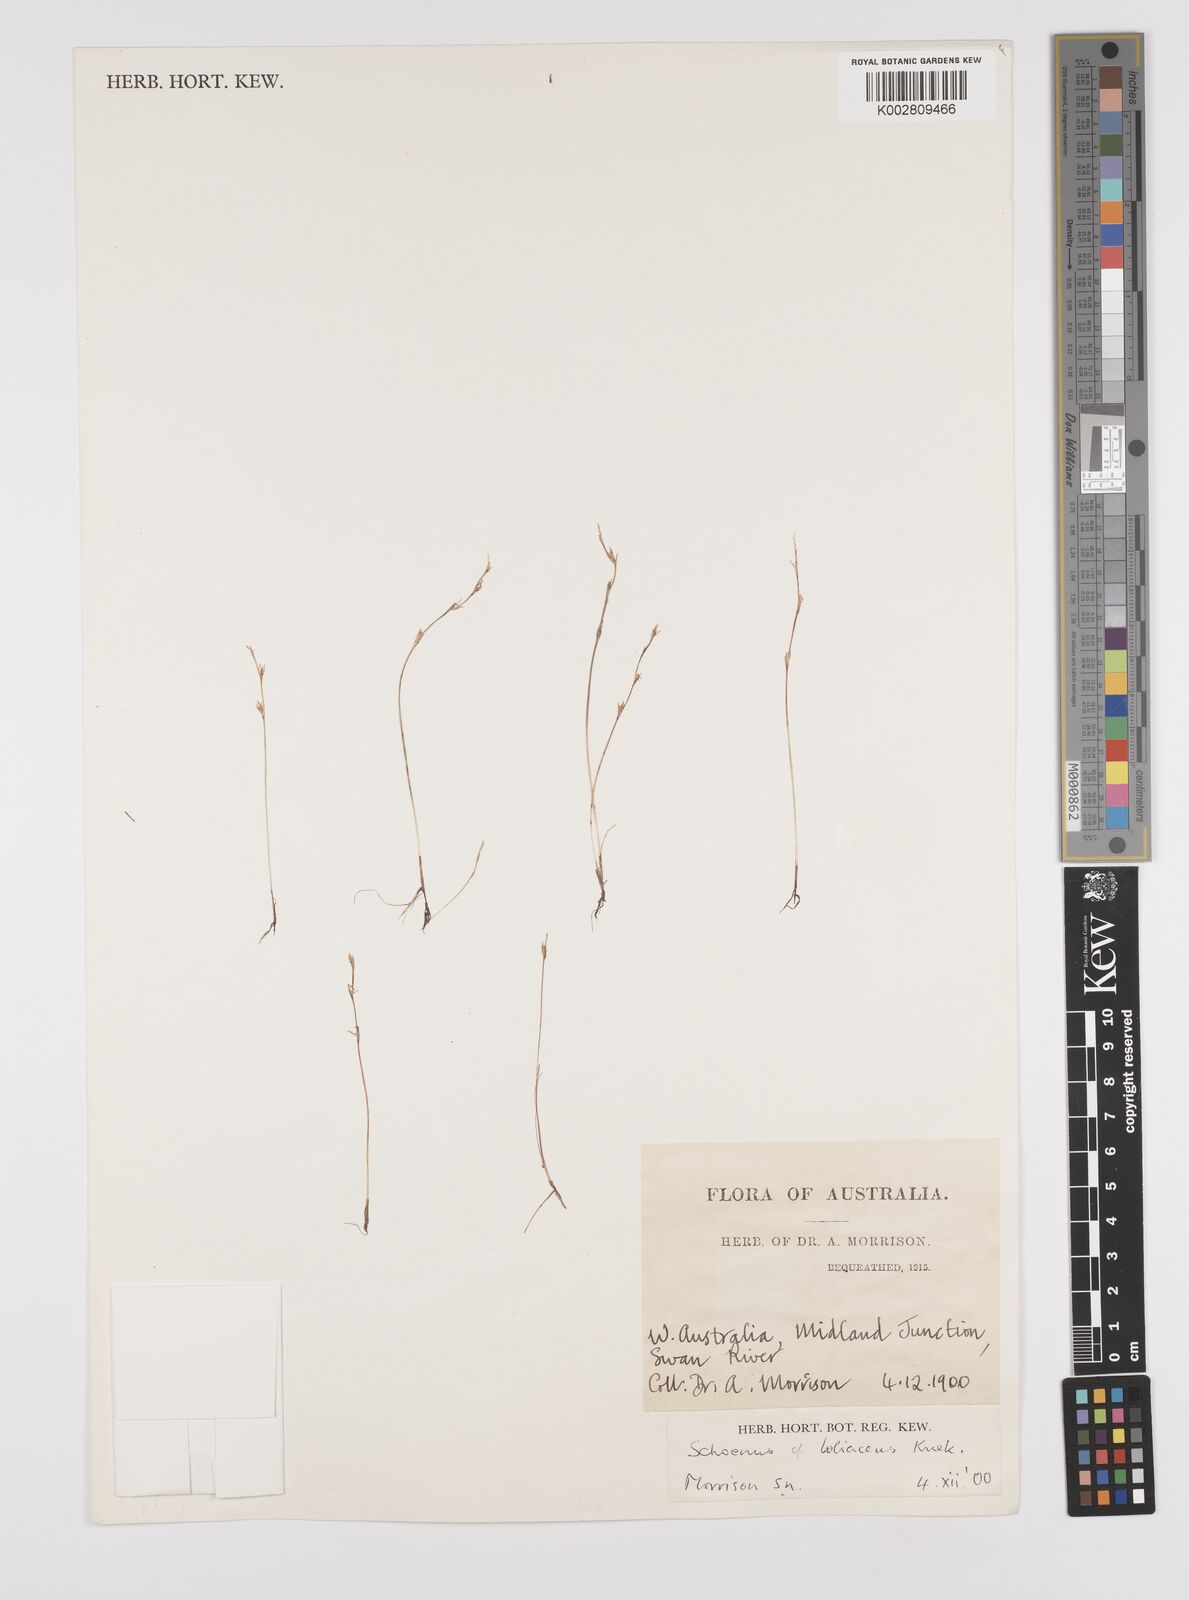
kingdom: Plantae
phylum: Tracheophyta
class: Liliopsida
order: Poales
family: Cyperaceae
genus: Schoenus
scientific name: Schoenus loliaceus
